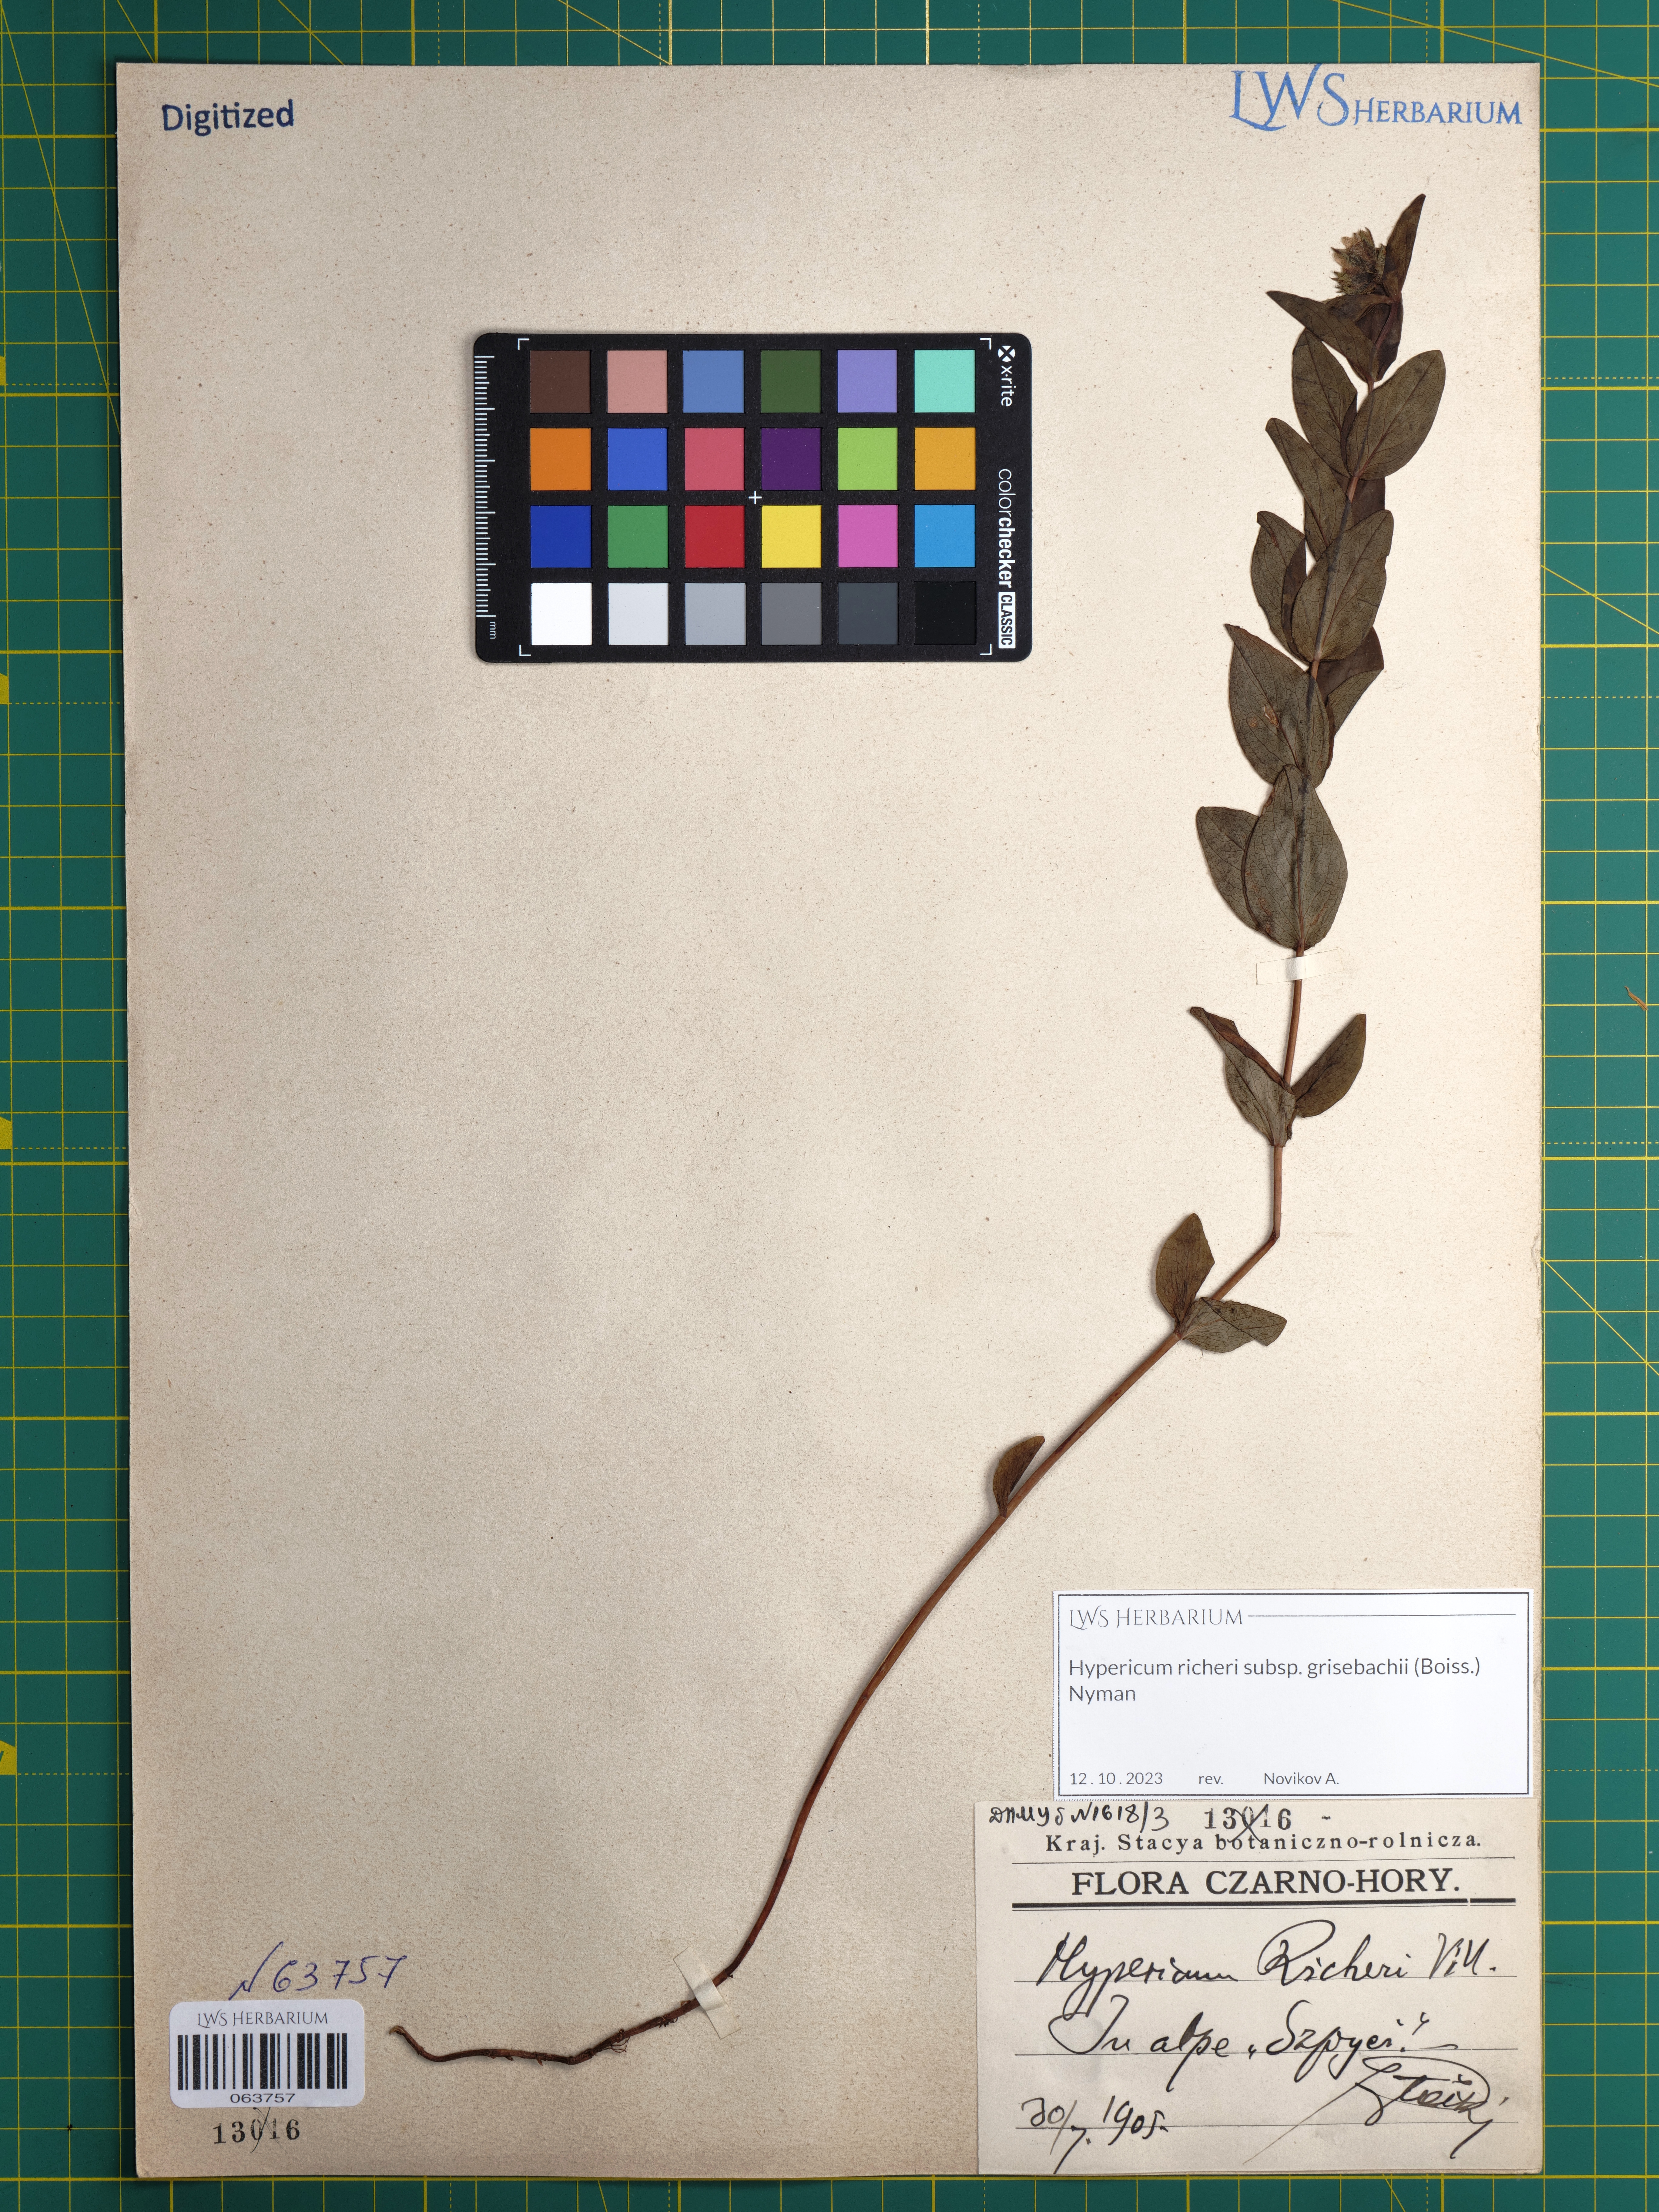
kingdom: Plantae
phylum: Tracheophyta
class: Magnoliopsida
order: Malpighiales
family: Hypericaceae
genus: Hypericum
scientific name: Hypericum richeri
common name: Alpine st john's-wort
